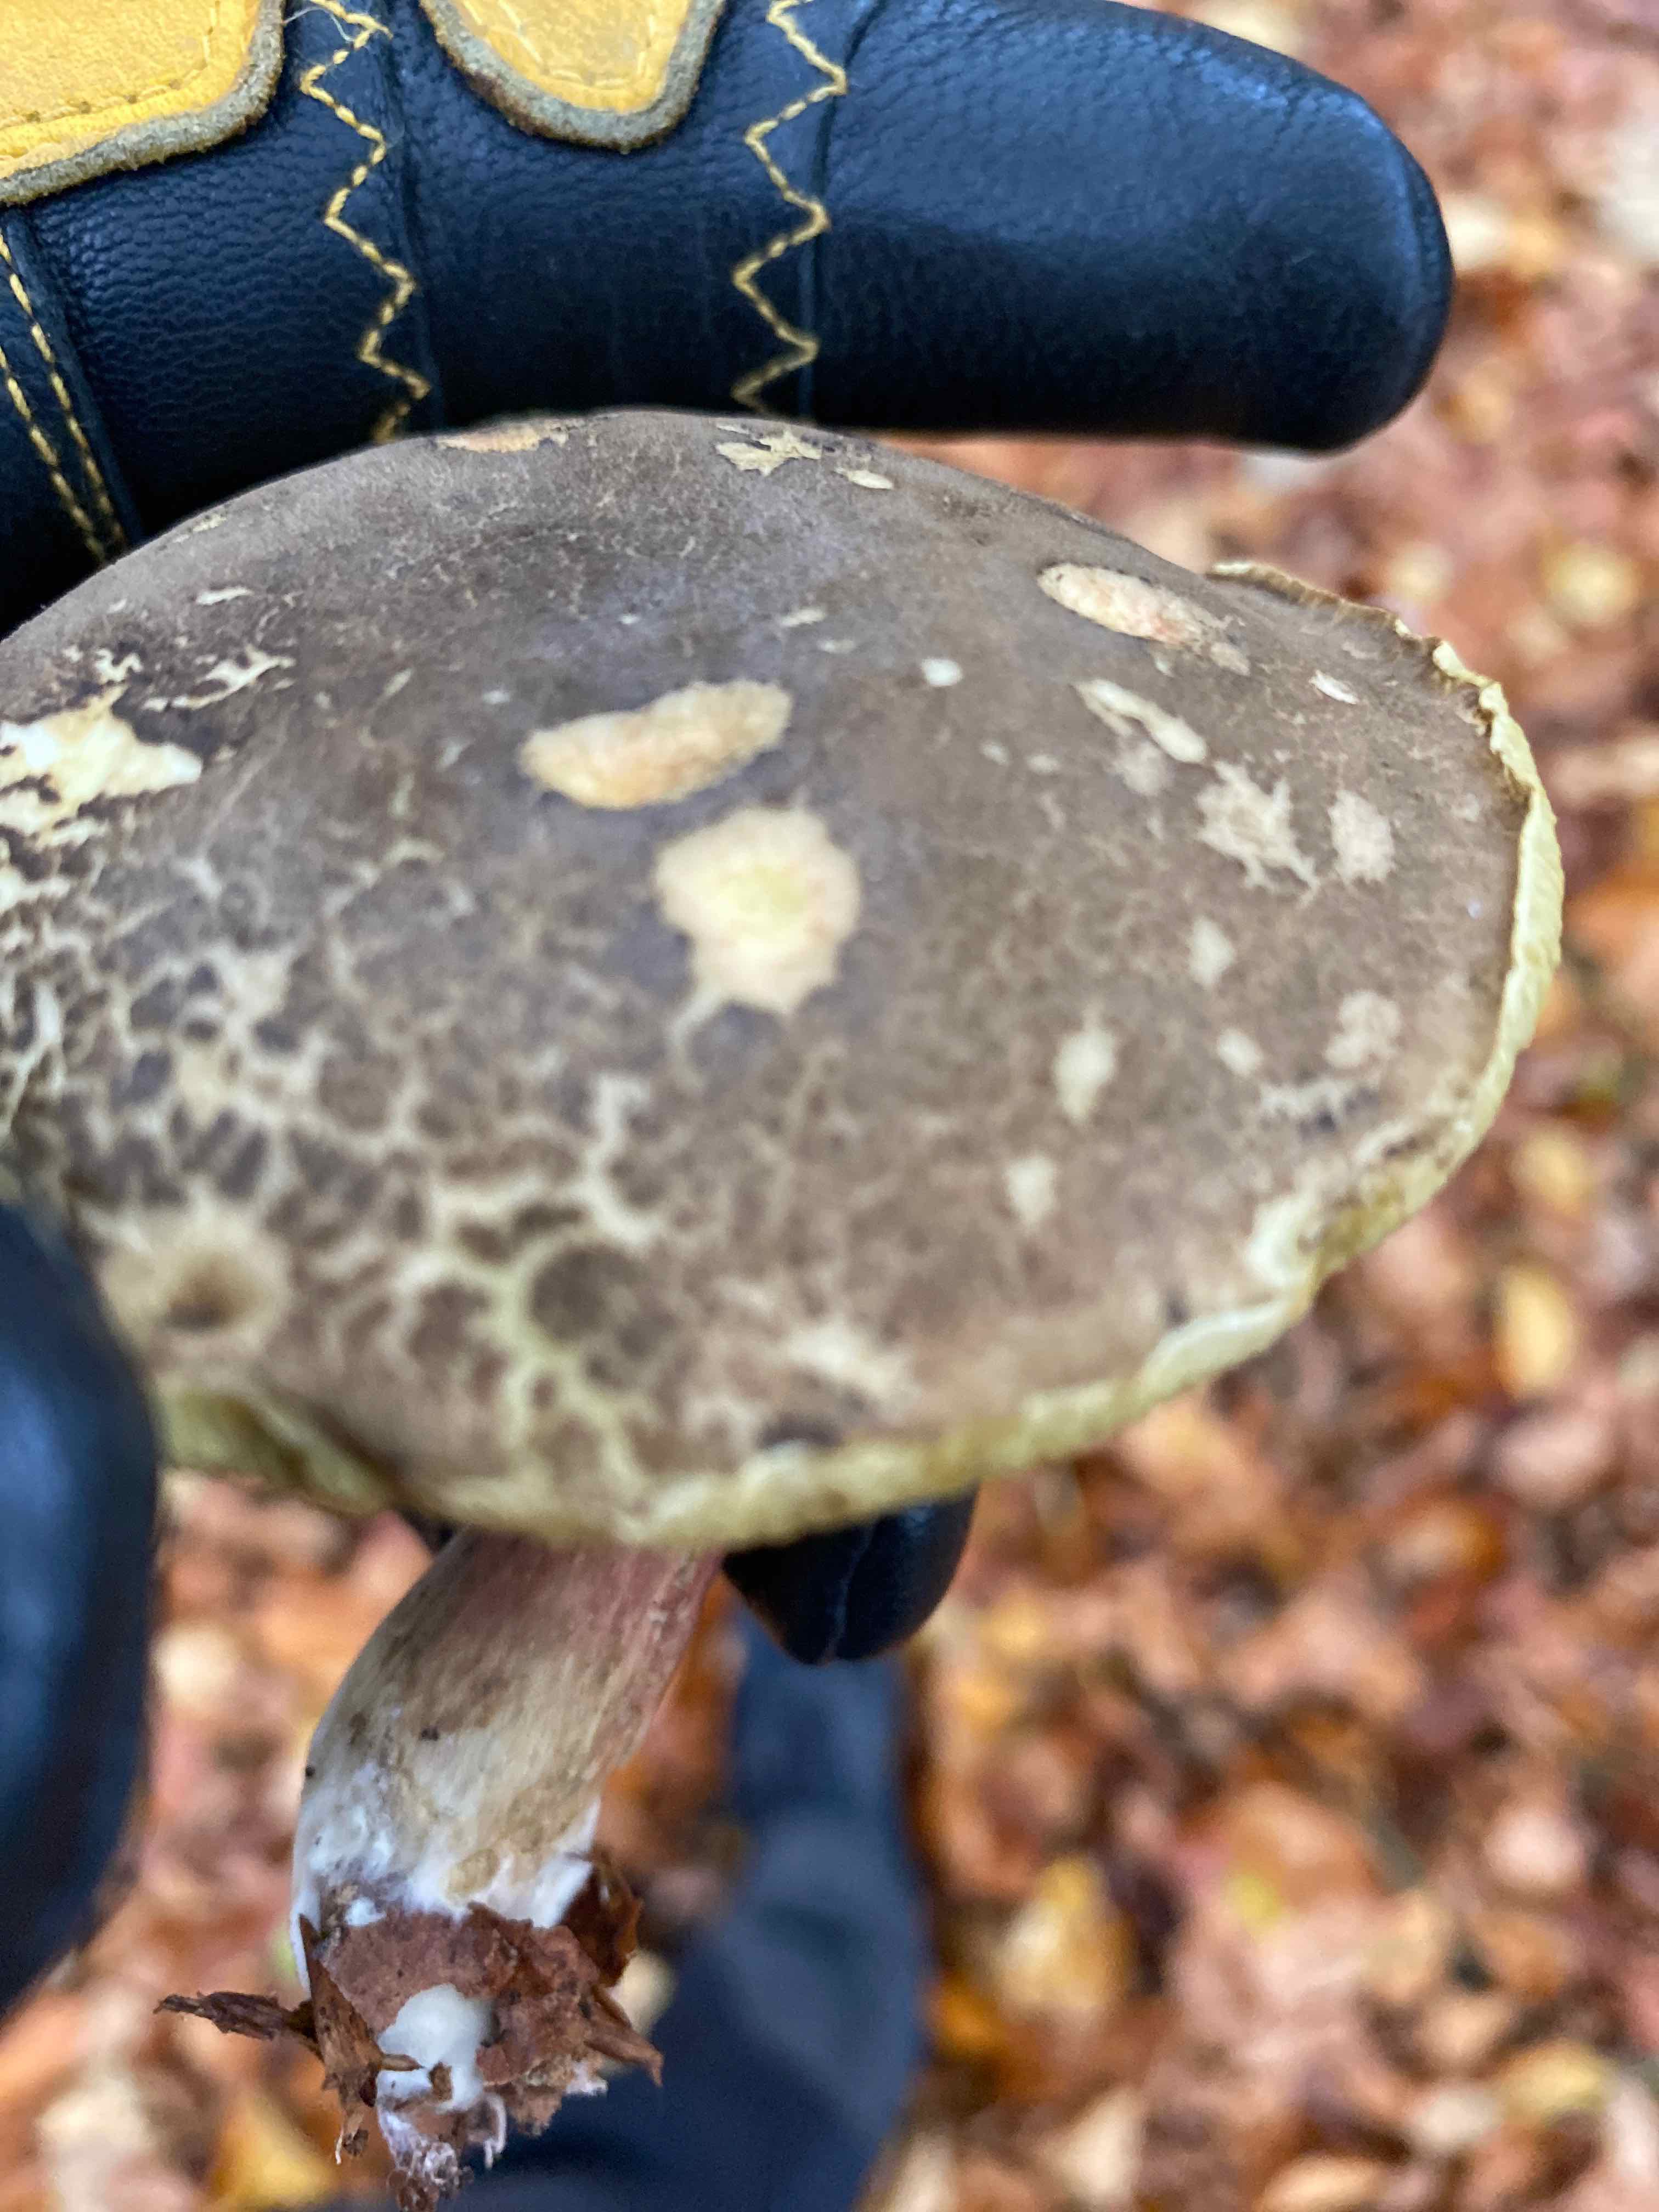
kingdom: Fungi
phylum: Basidiomycota
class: Agaricomycetes
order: Boletales
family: Boletaceae
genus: Xerocomellus
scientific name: Xerocomellus
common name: dværgrørhat
